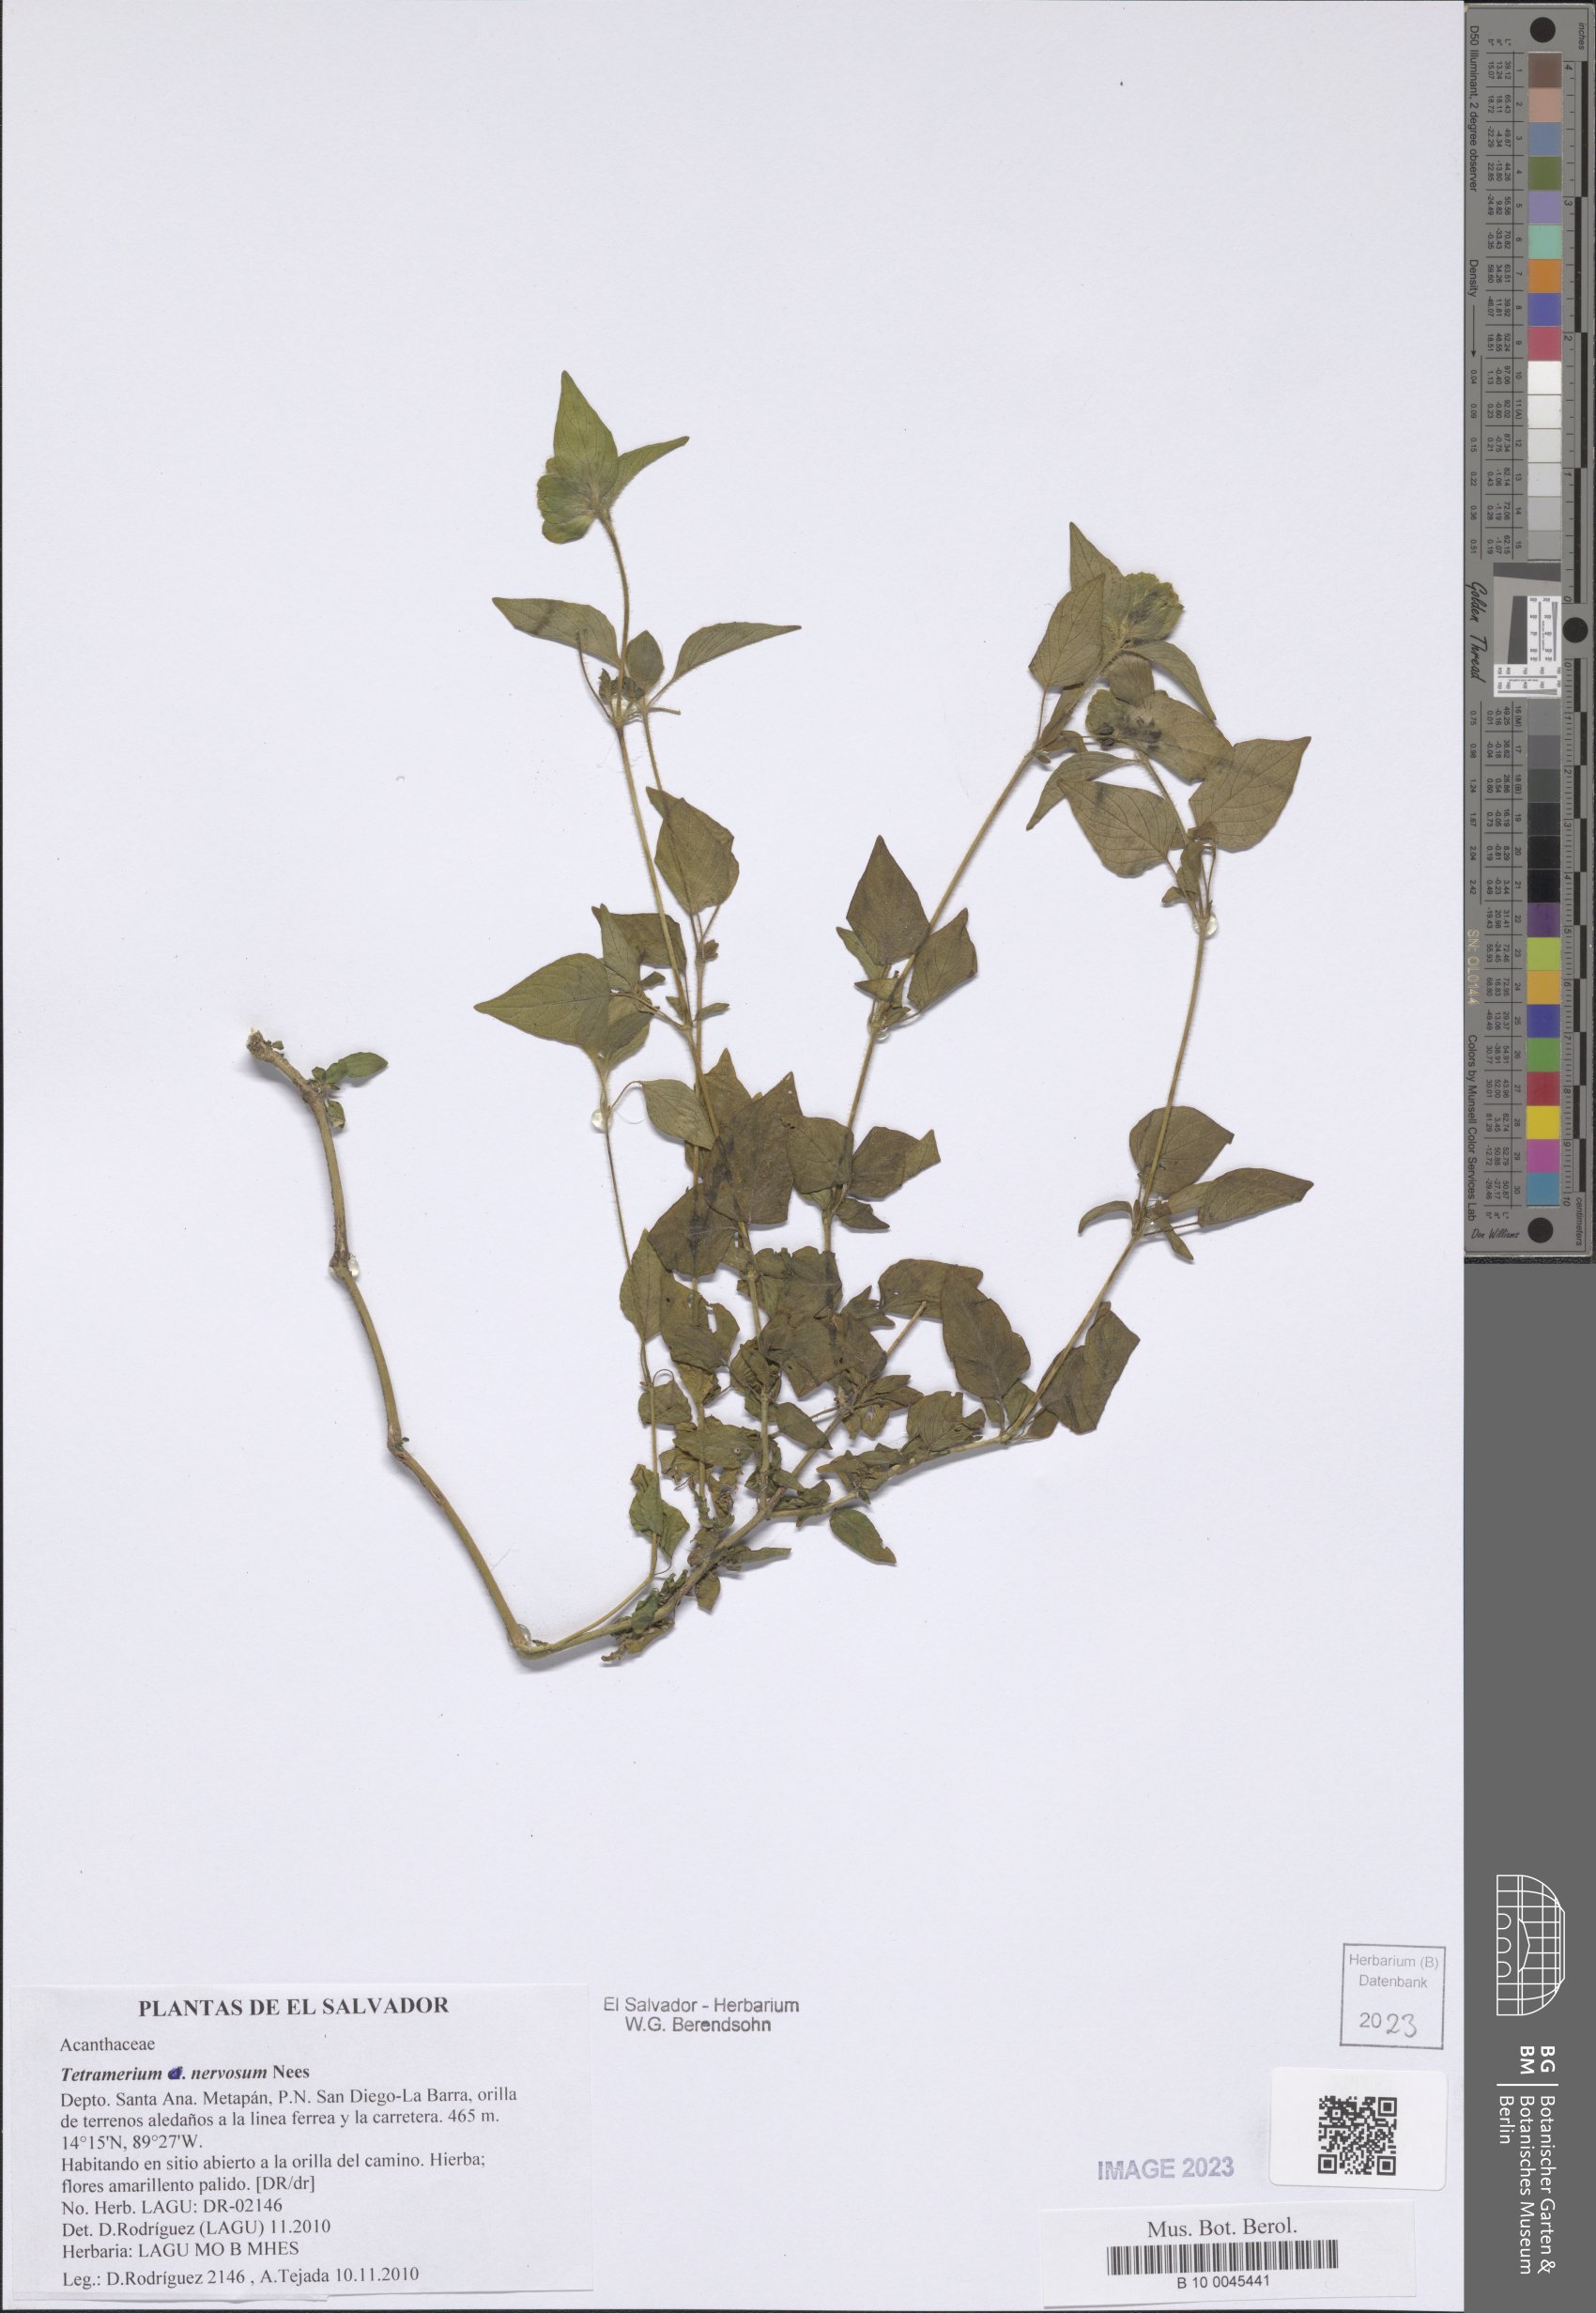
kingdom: Plantae
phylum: Tracheophyta
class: Magnoliopsida
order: Lamiales
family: Acanthaceae
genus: Tetramerium
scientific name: Tetramerium nervosum
